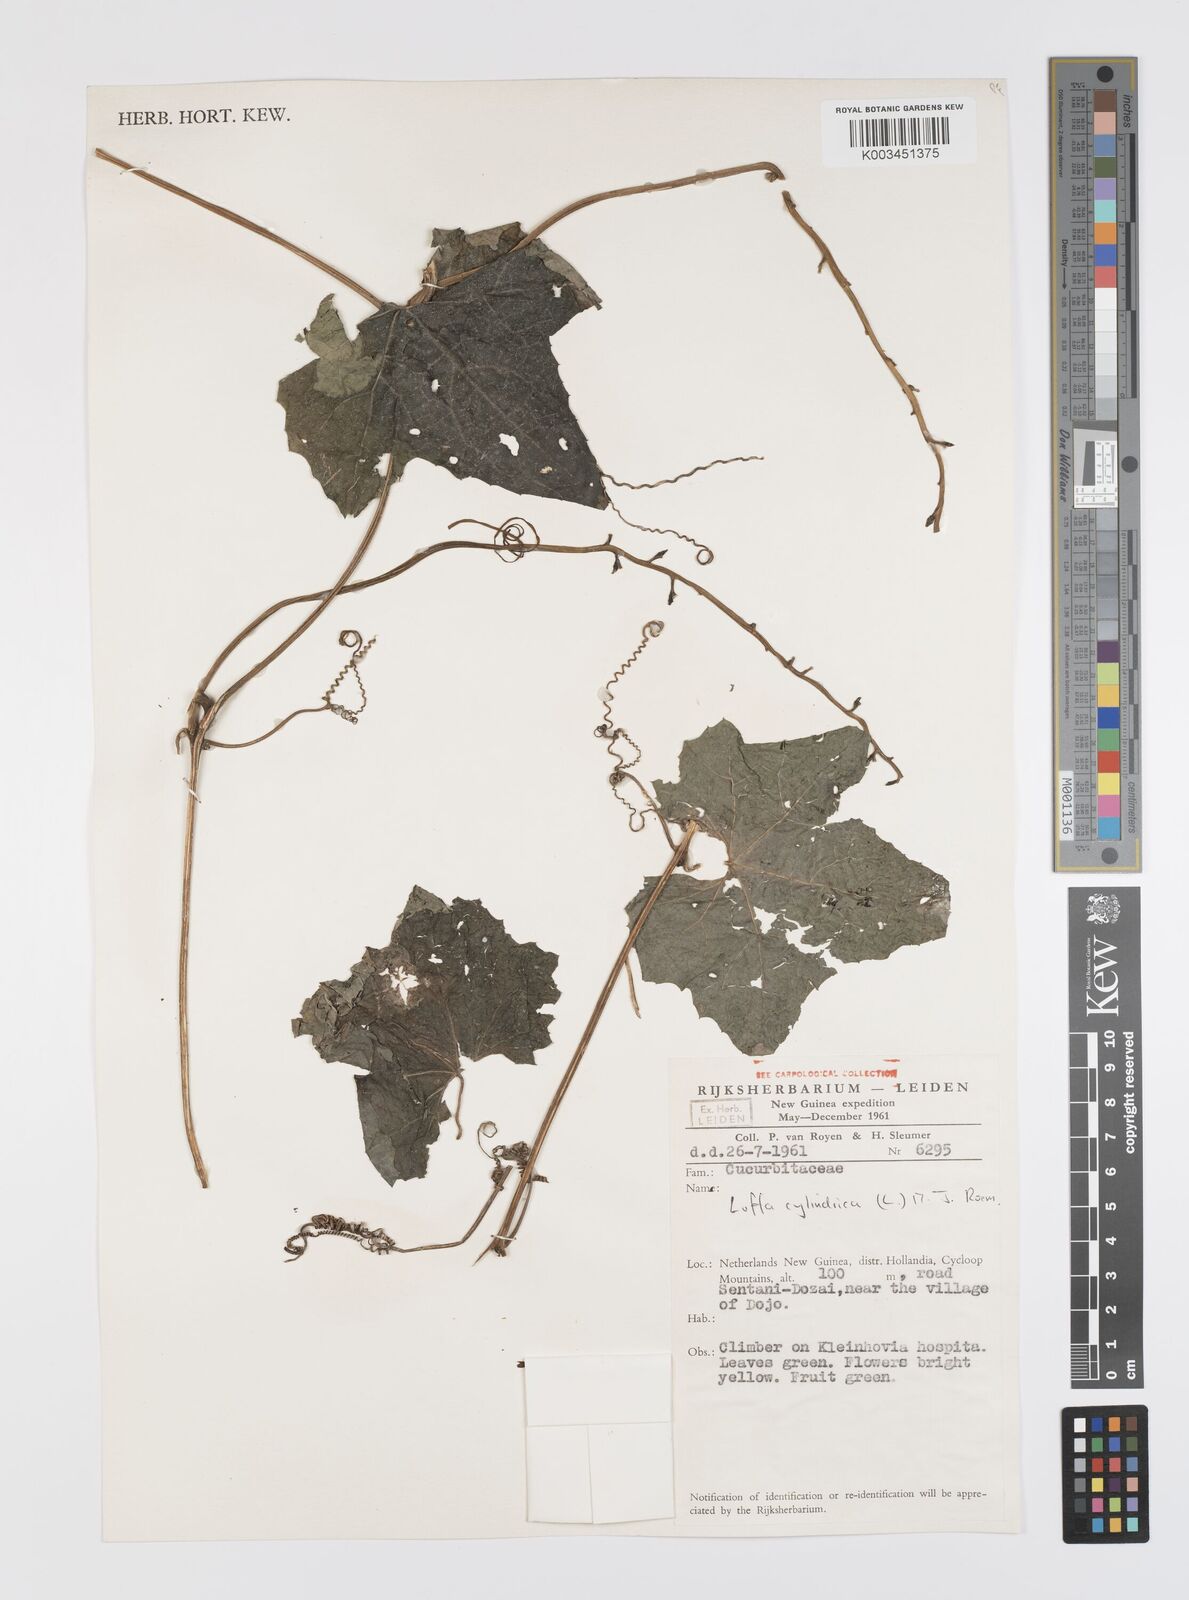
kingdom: Plantae
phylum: Tracheophyta
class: Magnoliopsida
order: Cucurbitales
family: Cucurbitaceae
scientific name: Cucurbitaceae
